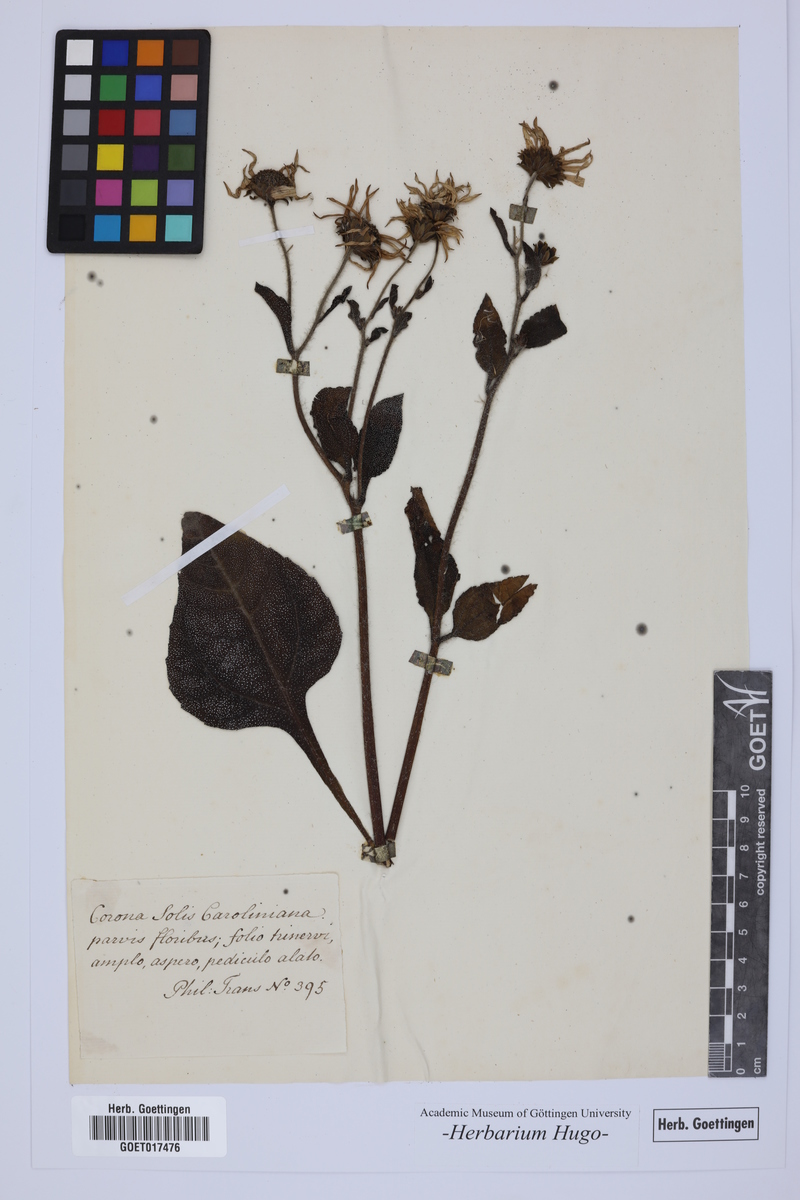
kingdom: Plantae
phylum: Tracheophyta
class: Magnoliopsida
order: Asterales
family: Asteraceae
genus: Heliopsis
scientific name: Heliopsis helianthoides
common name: False sunflower
